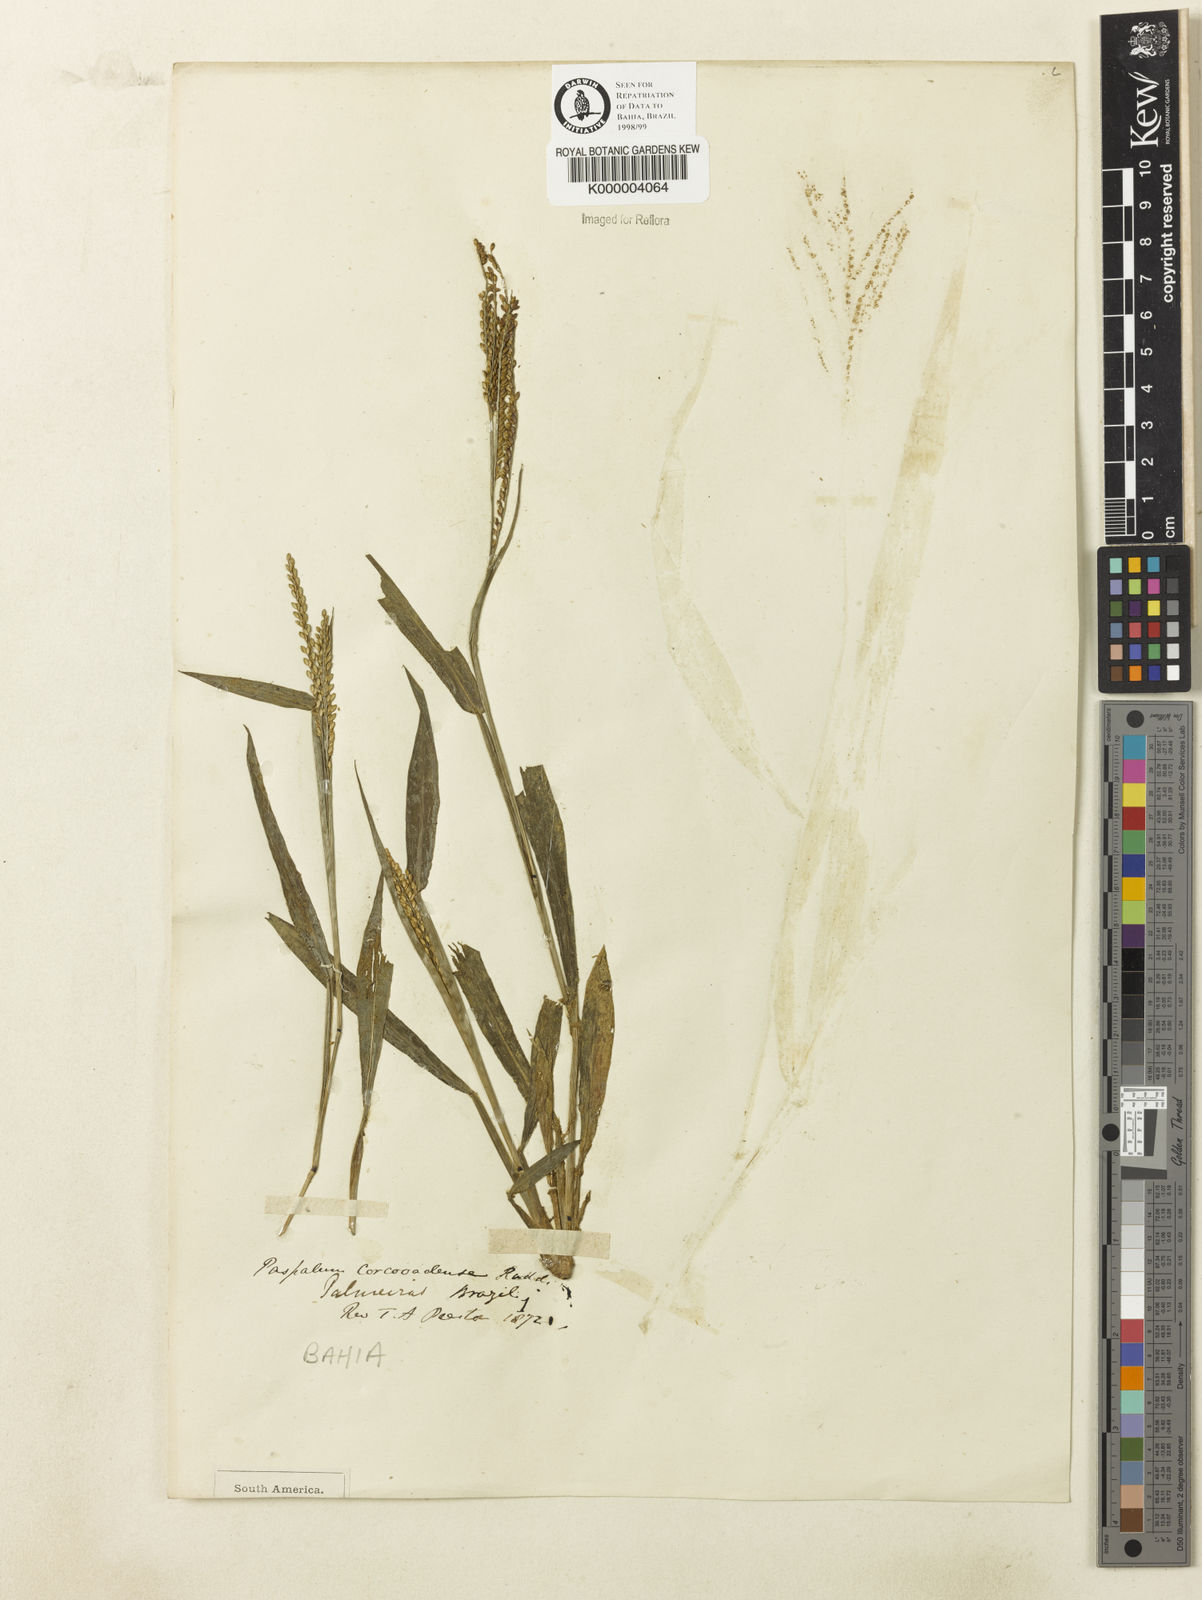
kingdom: Plantae
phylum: Tracheophyta
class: Liliopsida
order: Poales
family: Poaceae
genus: Paspalum
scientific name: Paspalum corcovadense
